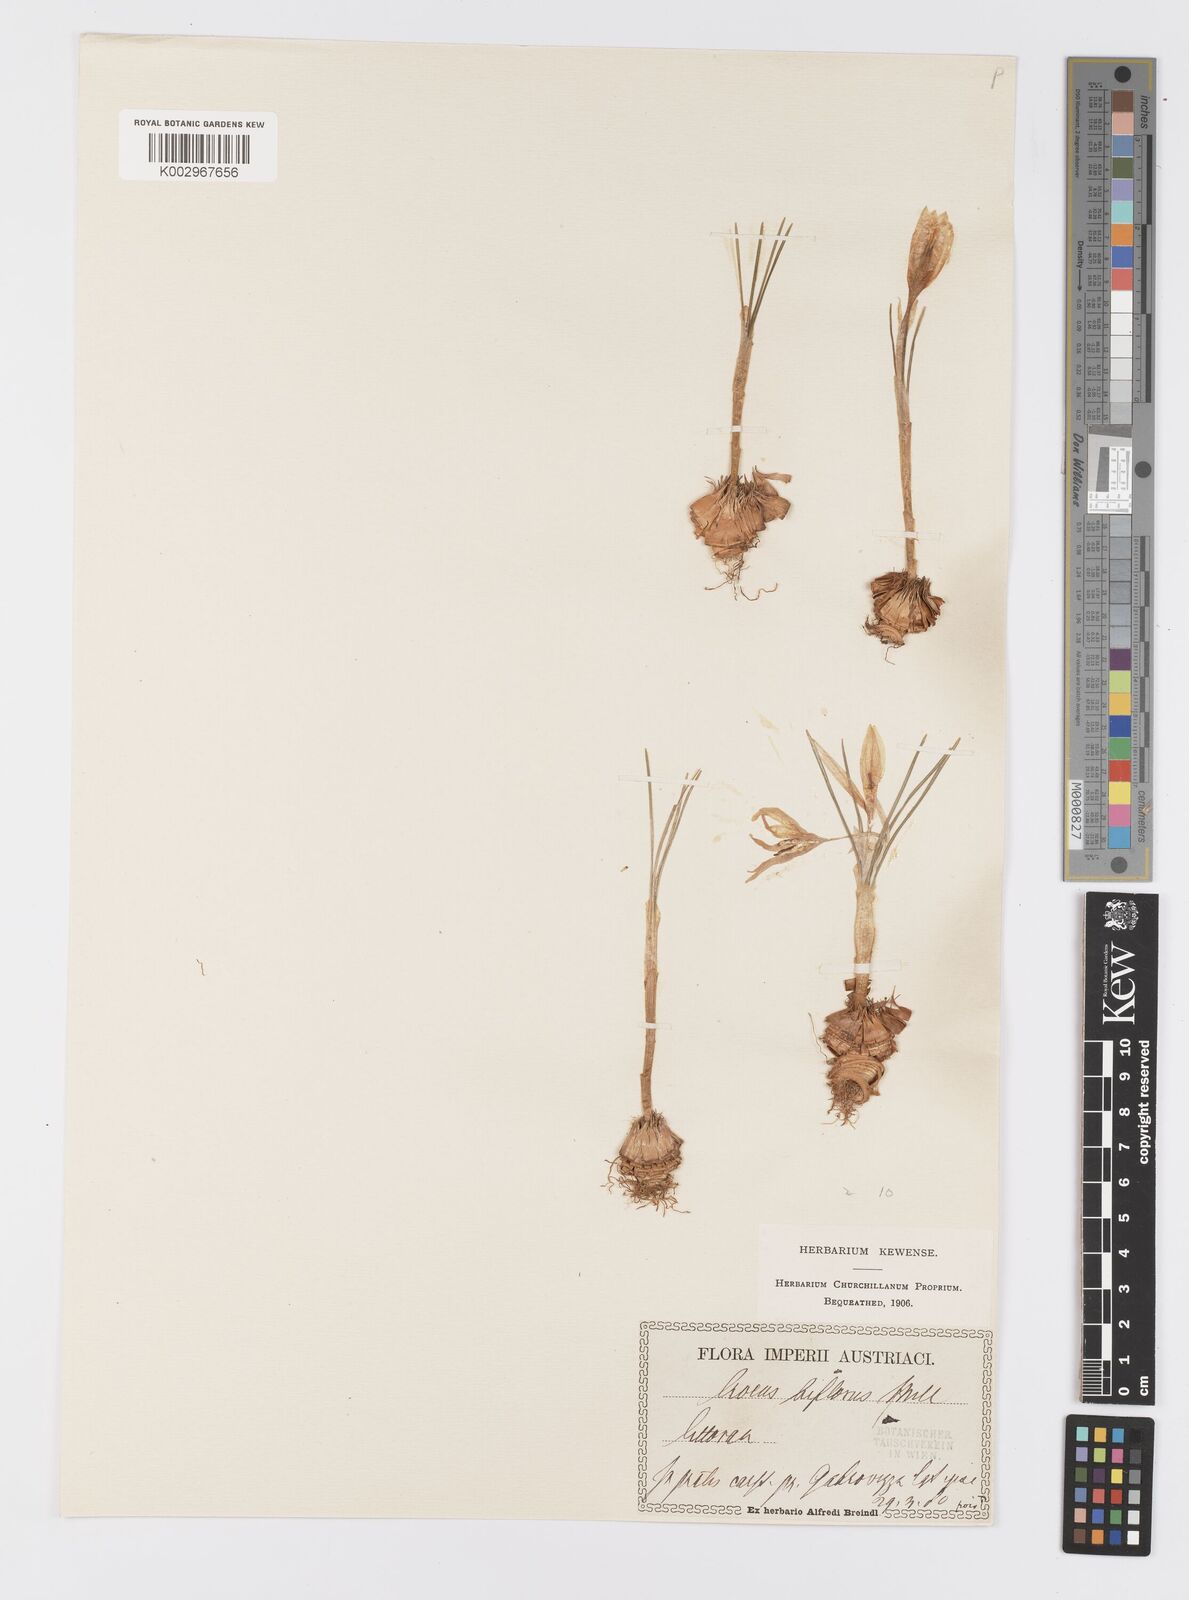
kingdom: Plantae
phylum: Tracheophyta
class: Liliopsida
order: Asparagales
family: Iridaceae
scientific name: Iridaceae
